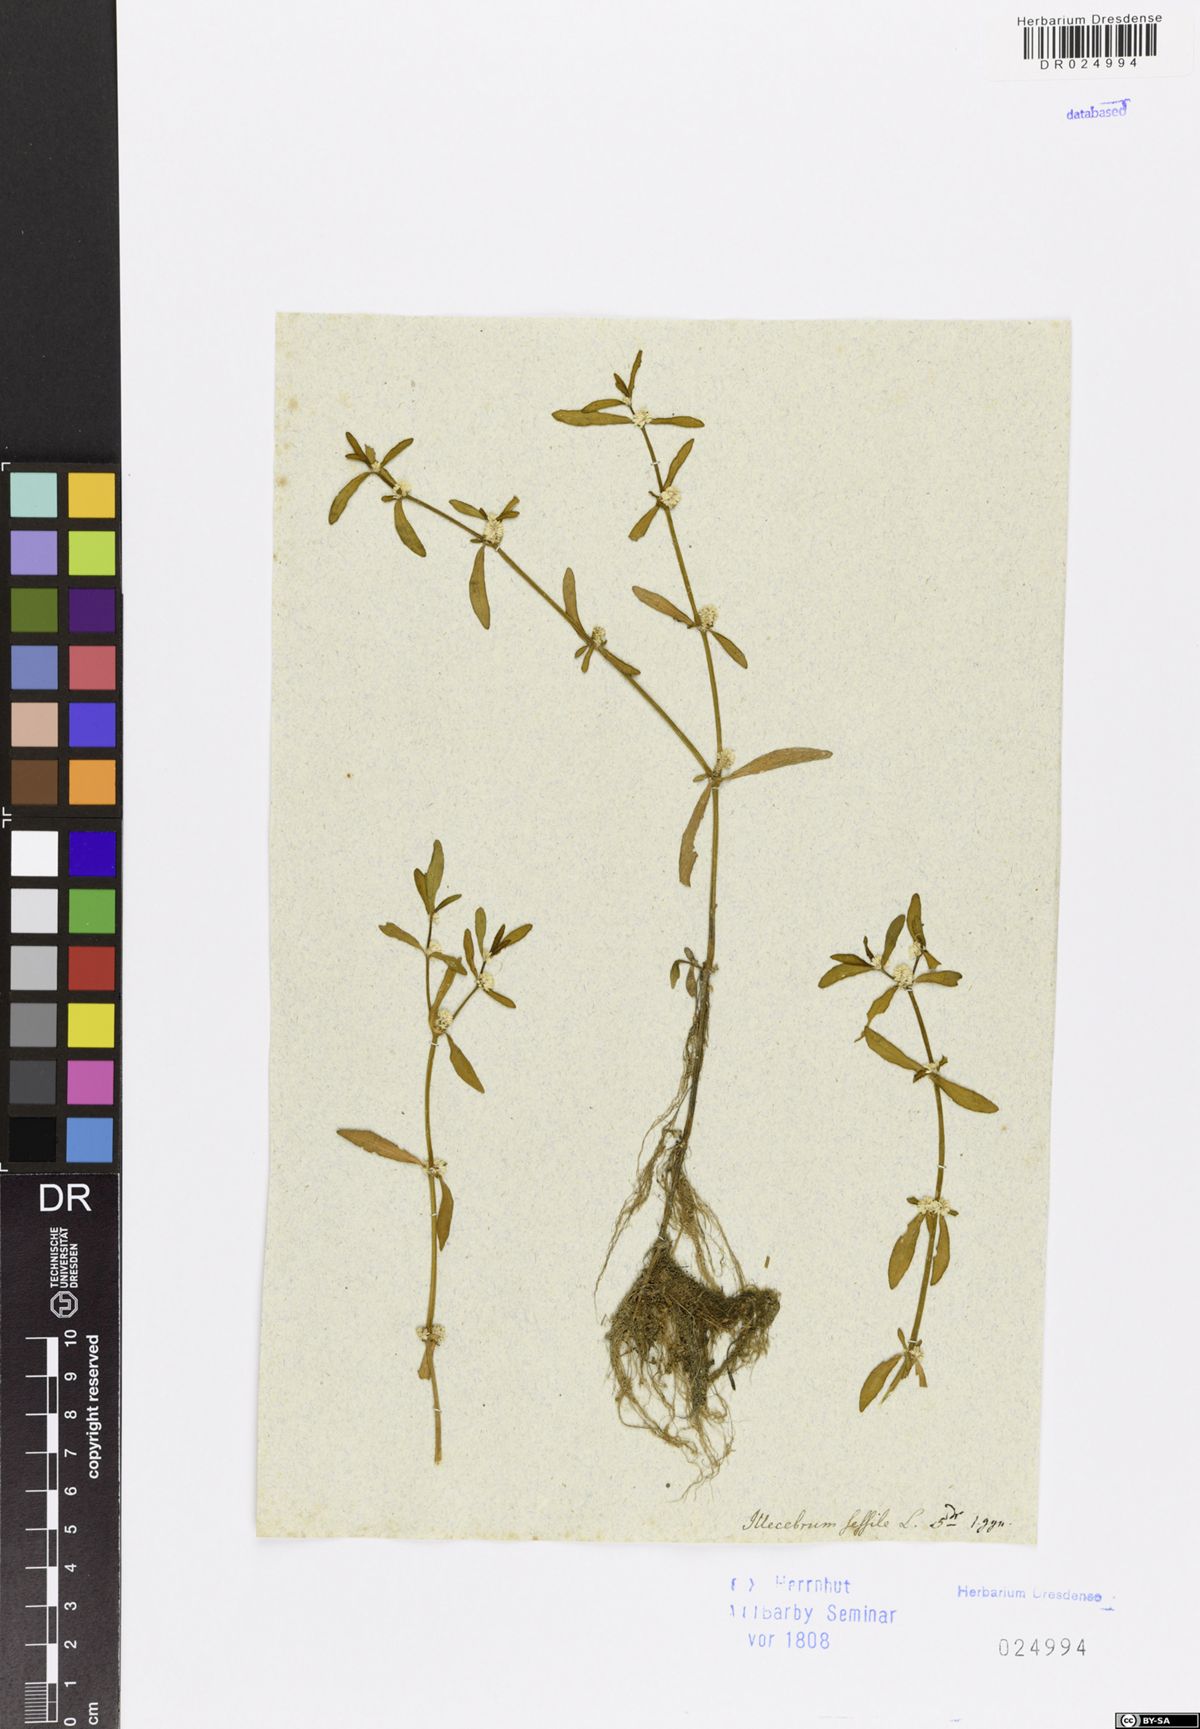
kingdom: Plantae
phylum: Tracheophyta
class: Magnoliopsida
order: Caryophyllales
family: Amaranthaceae
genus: Alternanthera
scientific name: Alternanthera sessilis
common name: Sessile joyweed
